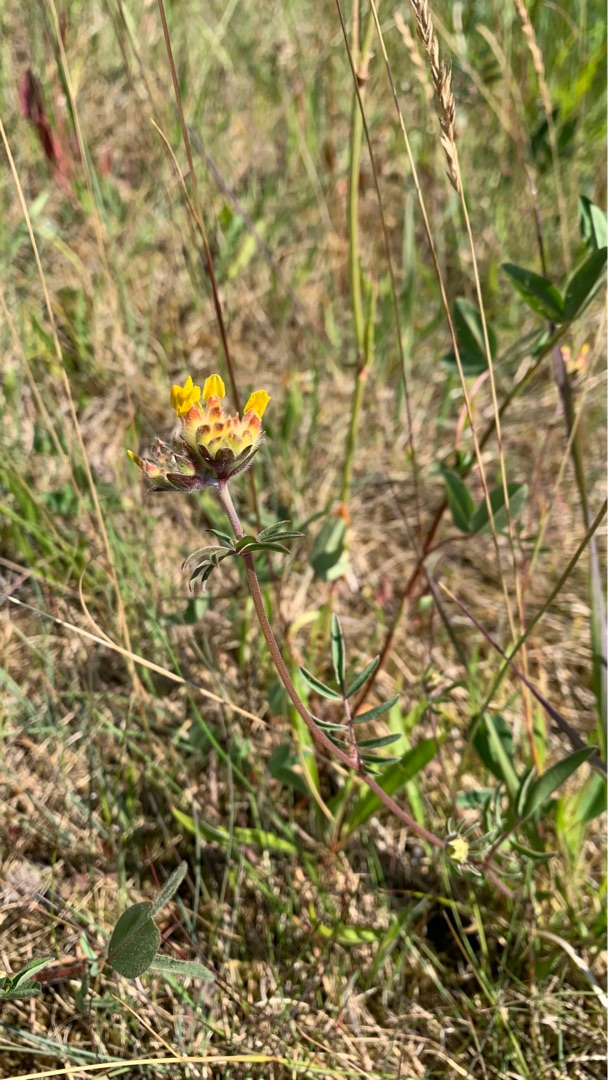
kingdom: Plantae
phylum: Tracheophyta
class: Magnoliopsida
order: Fabales
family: Fabaceae
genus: Anthyllis
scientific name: Anthyllis vulneraria
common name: Rundbælg
